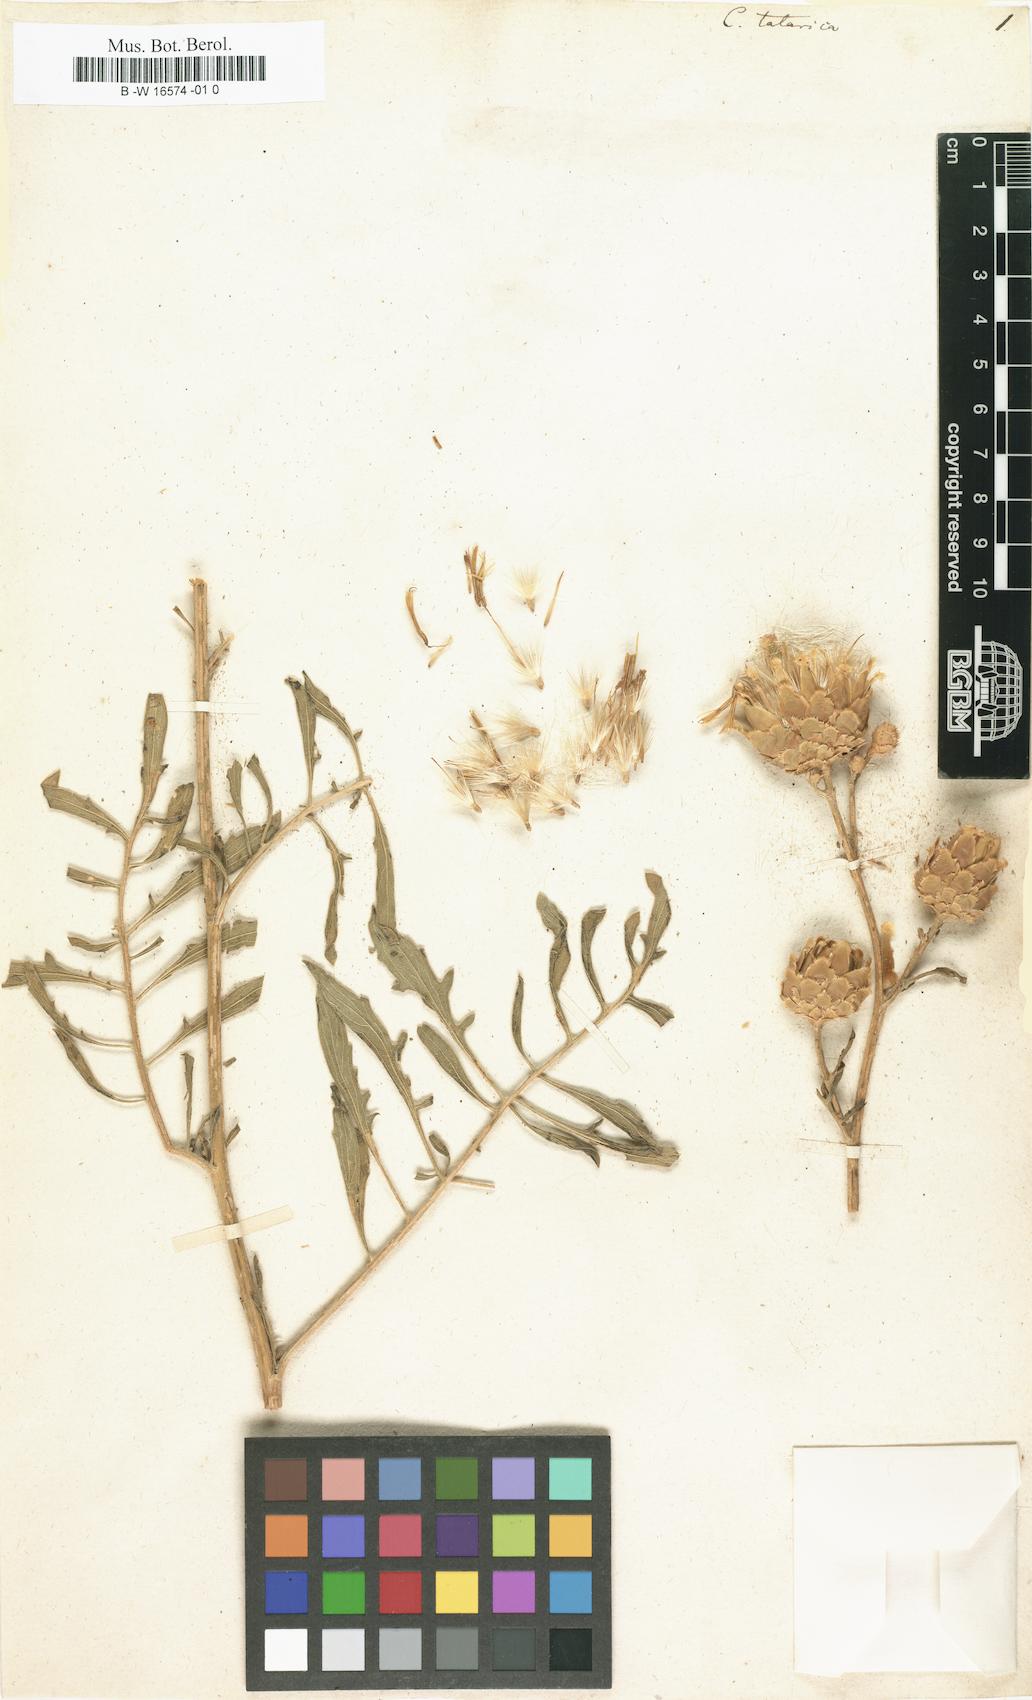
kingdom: Plantae
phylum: Tracheophyta
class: Magnoliopsida
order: Asterales
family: Asteraceae
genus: Centaurea
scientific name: Centaurea
